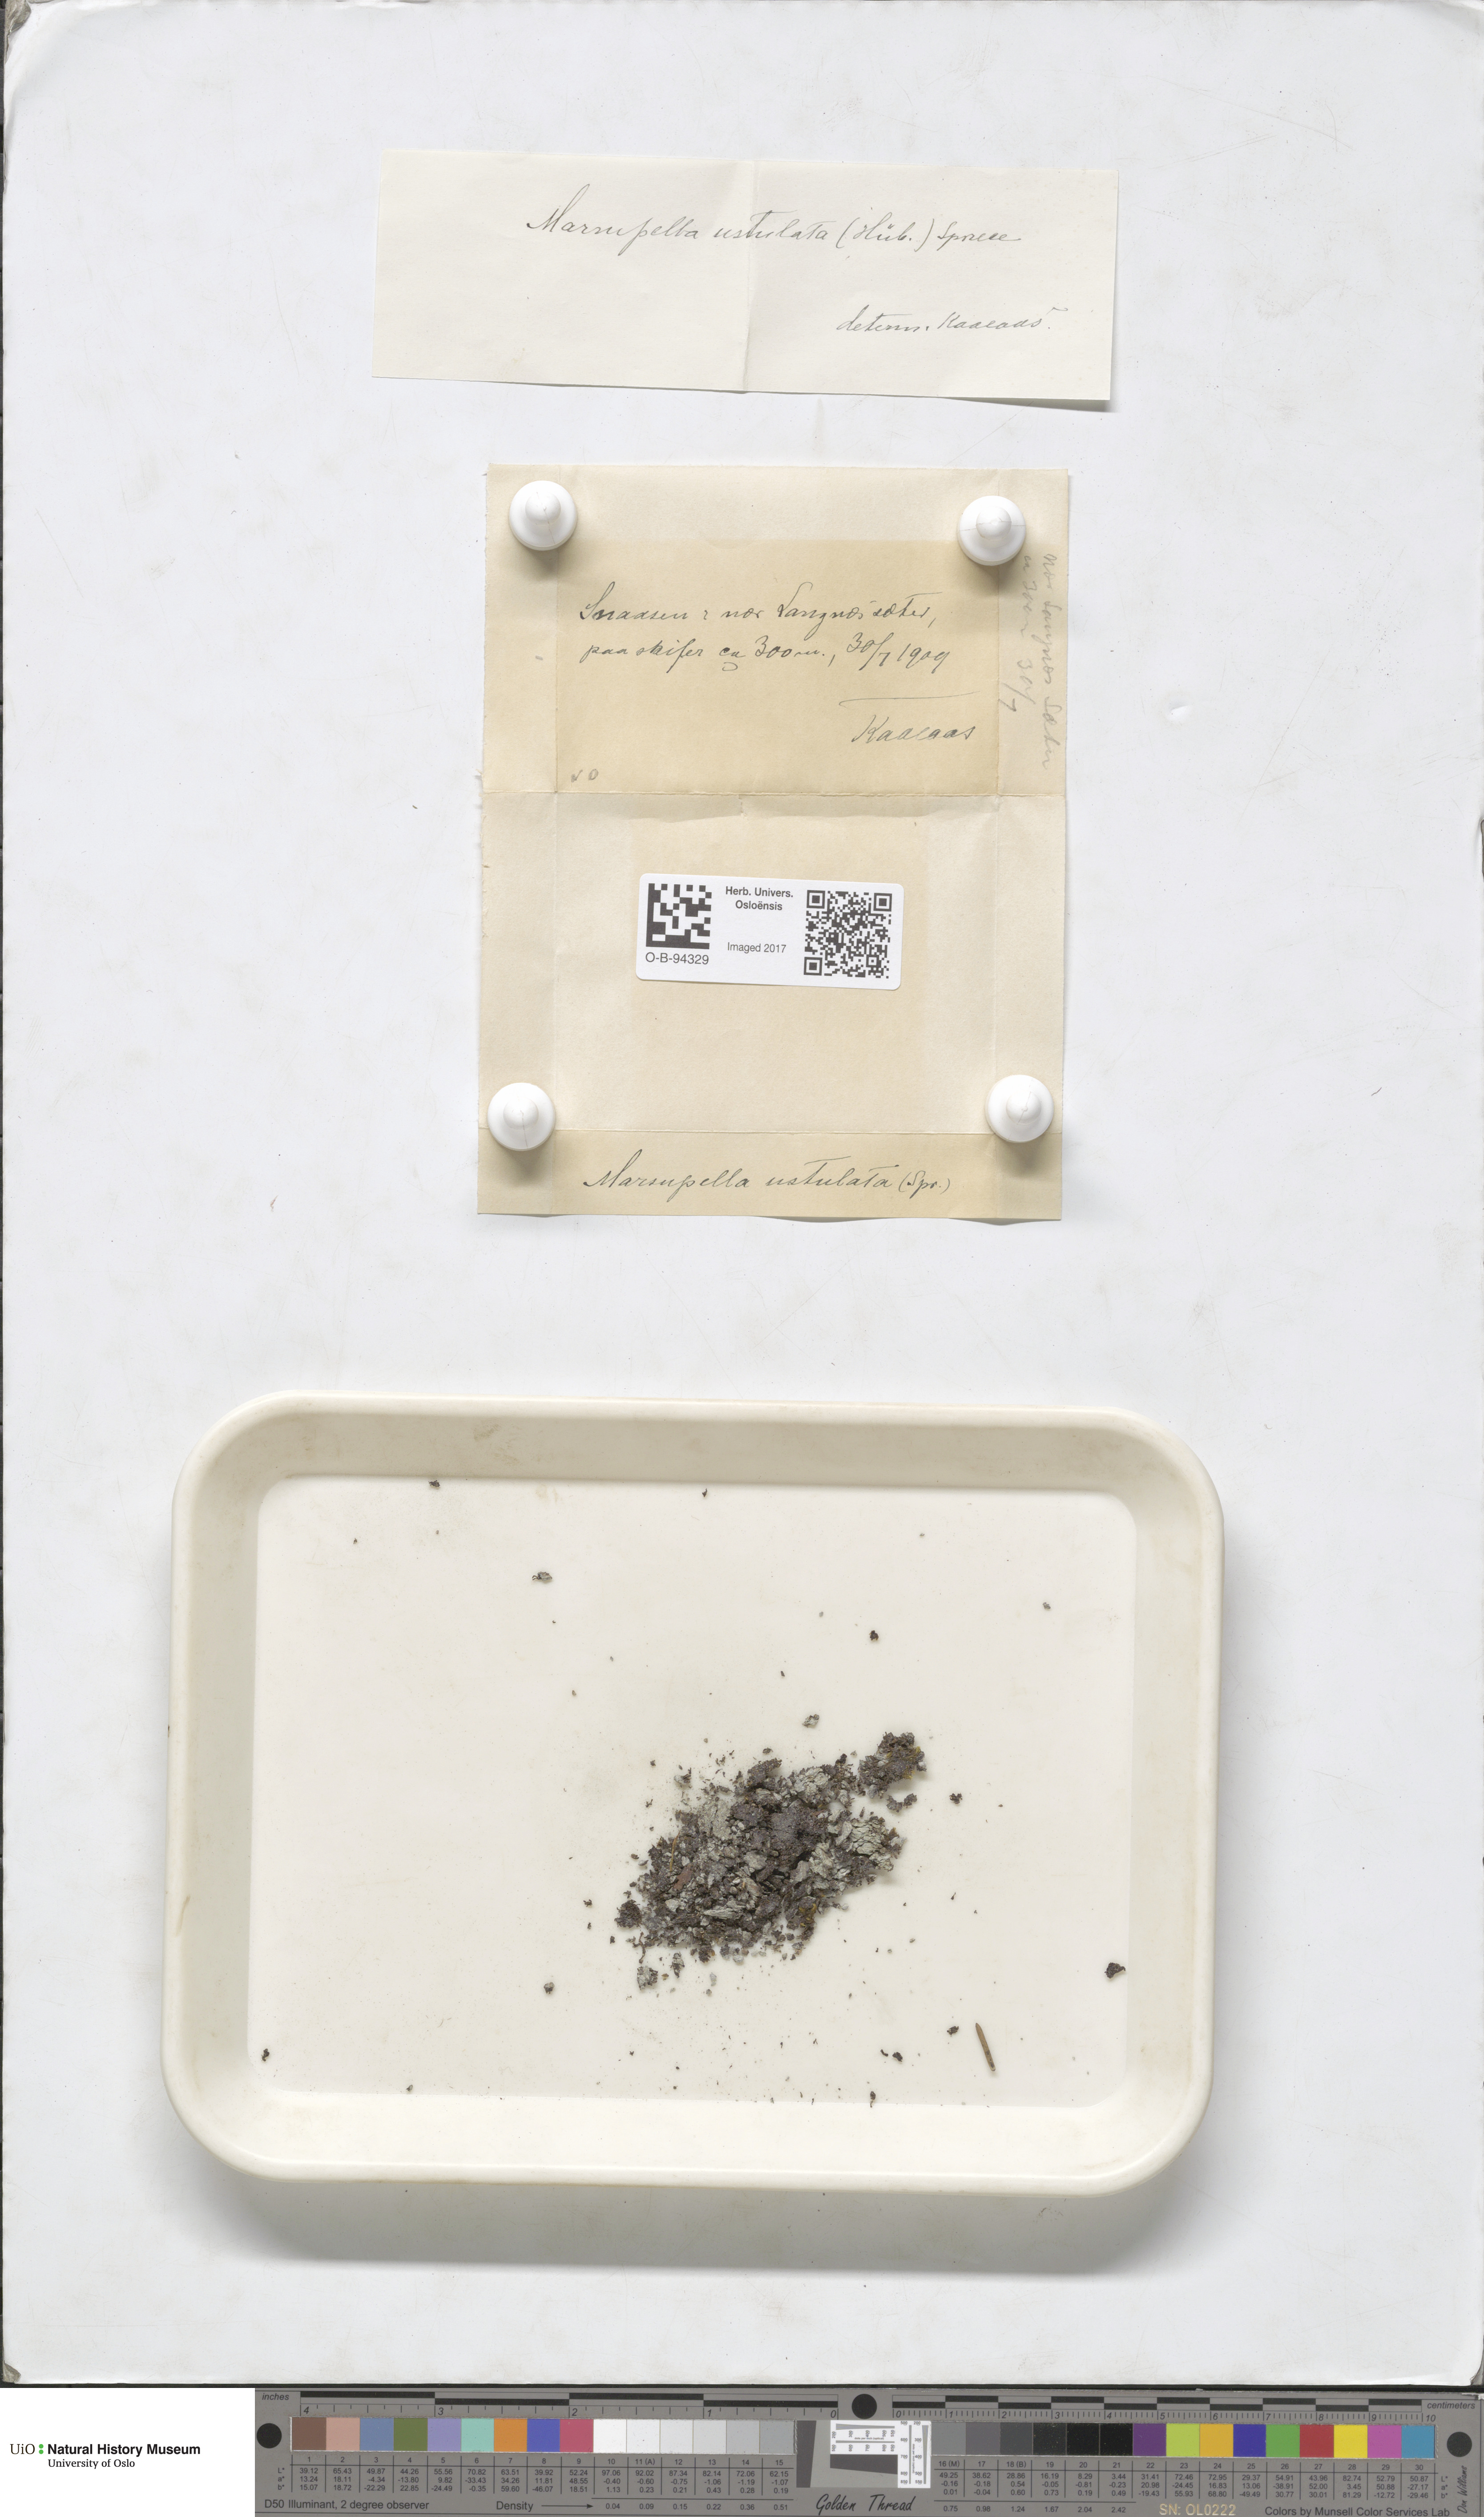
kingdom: Plantae
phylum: Marchantiophyta
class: Jungermanniopsida
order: Jungermanniales
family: Gymnomitriaceae
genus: Marsupella
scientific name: Marsupella sprucei
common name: Spruce s rustwort
